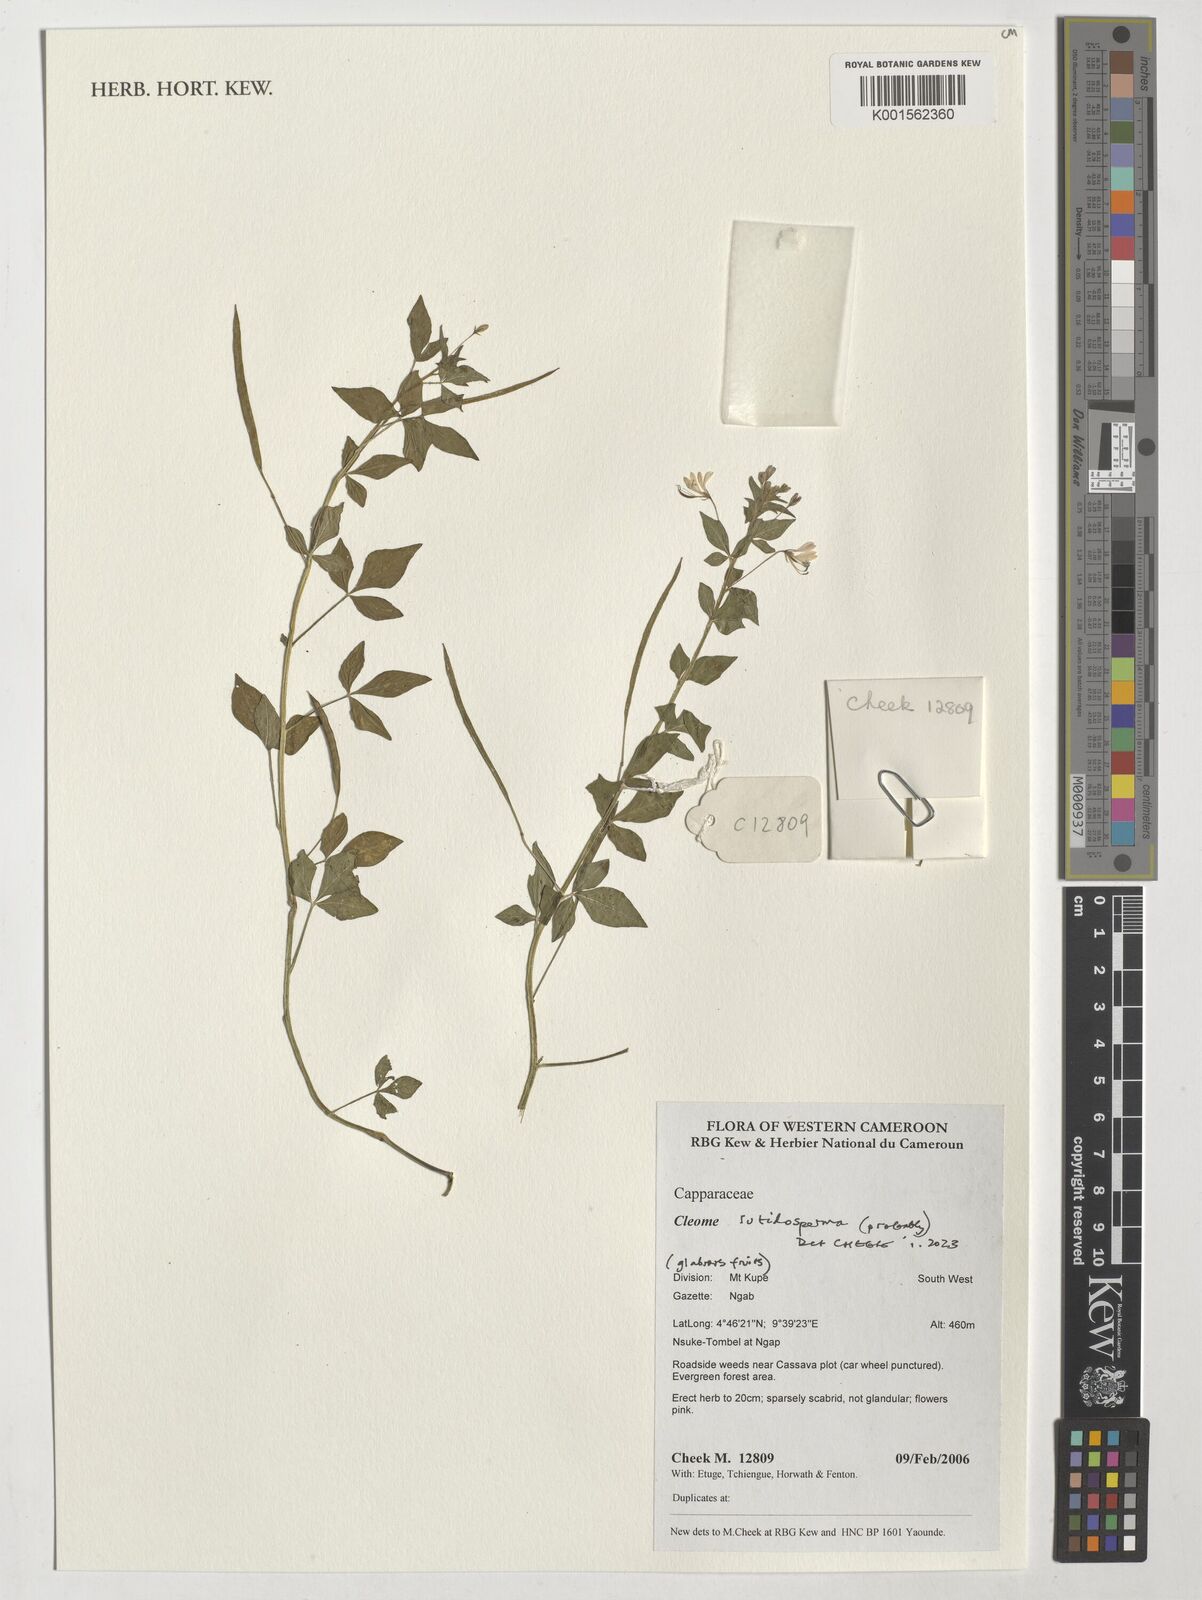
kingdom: Plantae
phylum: Tracheophyta
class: Magnoliopsida
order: Brassicales
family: Cleomaceae
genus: Sieruela
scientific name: Sieruela rutidosperma
